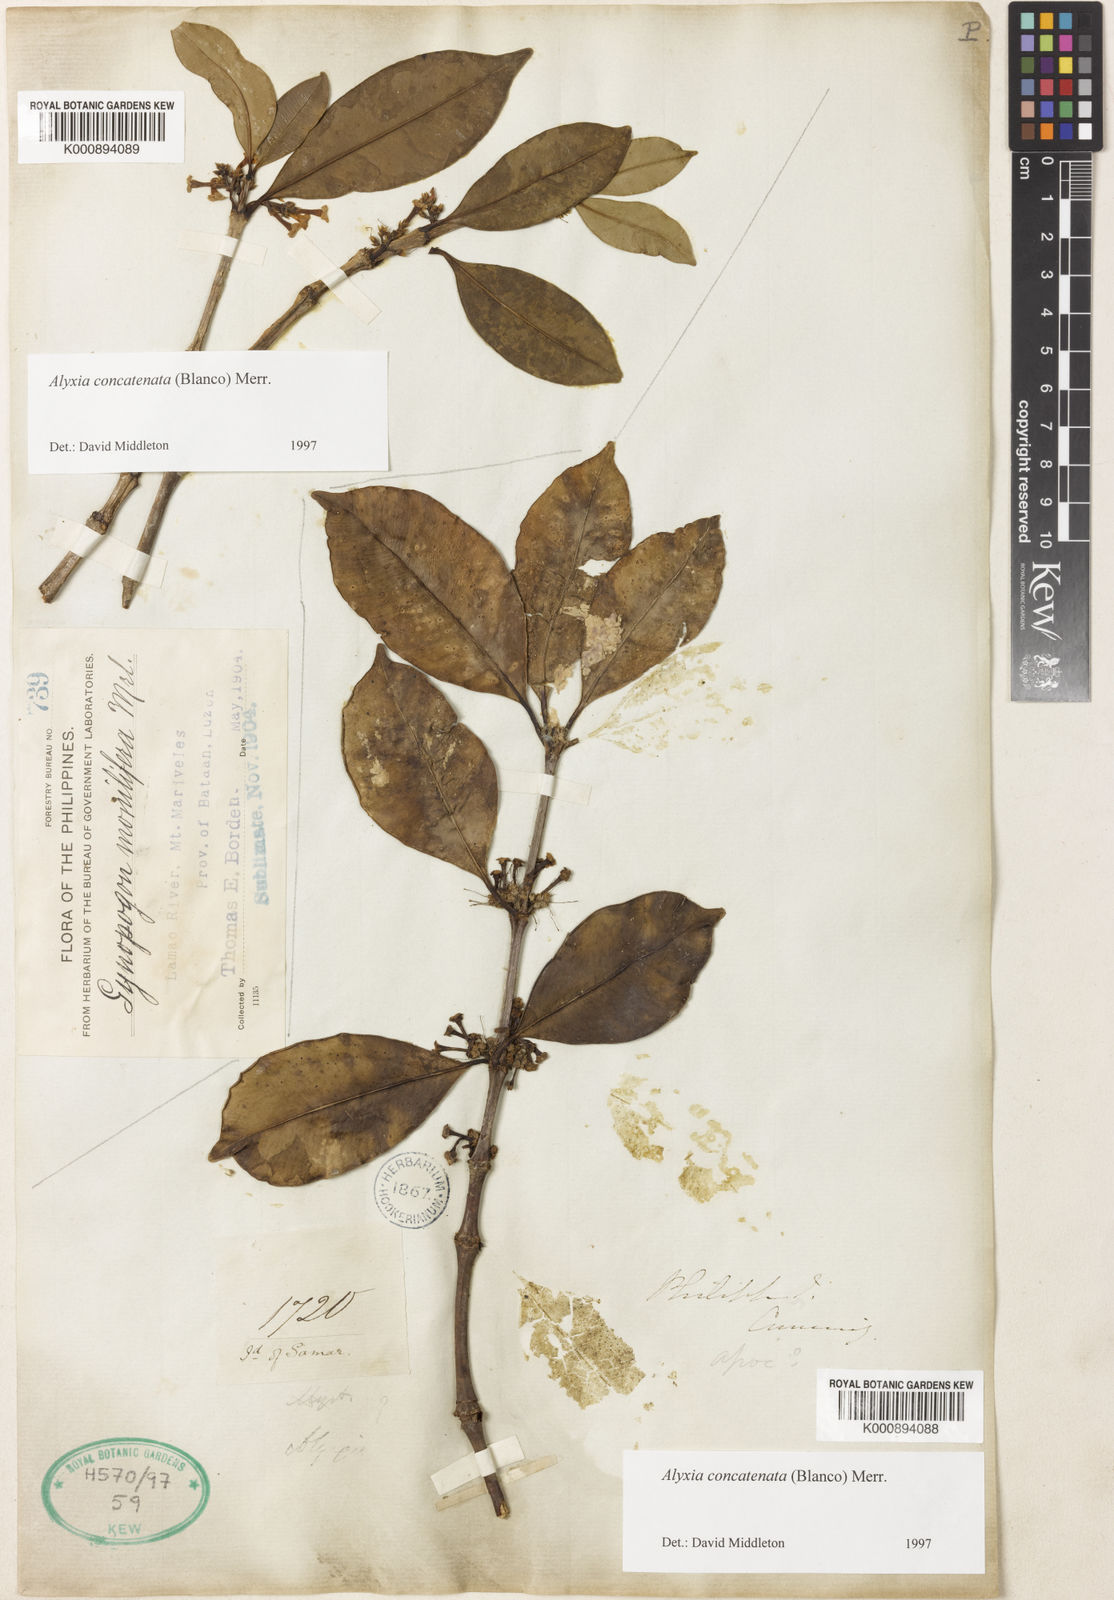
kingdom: Plantae
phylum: Tracheophyta
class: Magnoliopsida
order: Gentianales
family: Apocynaceae
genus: Alyxia
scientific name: Alyxia concatenata
